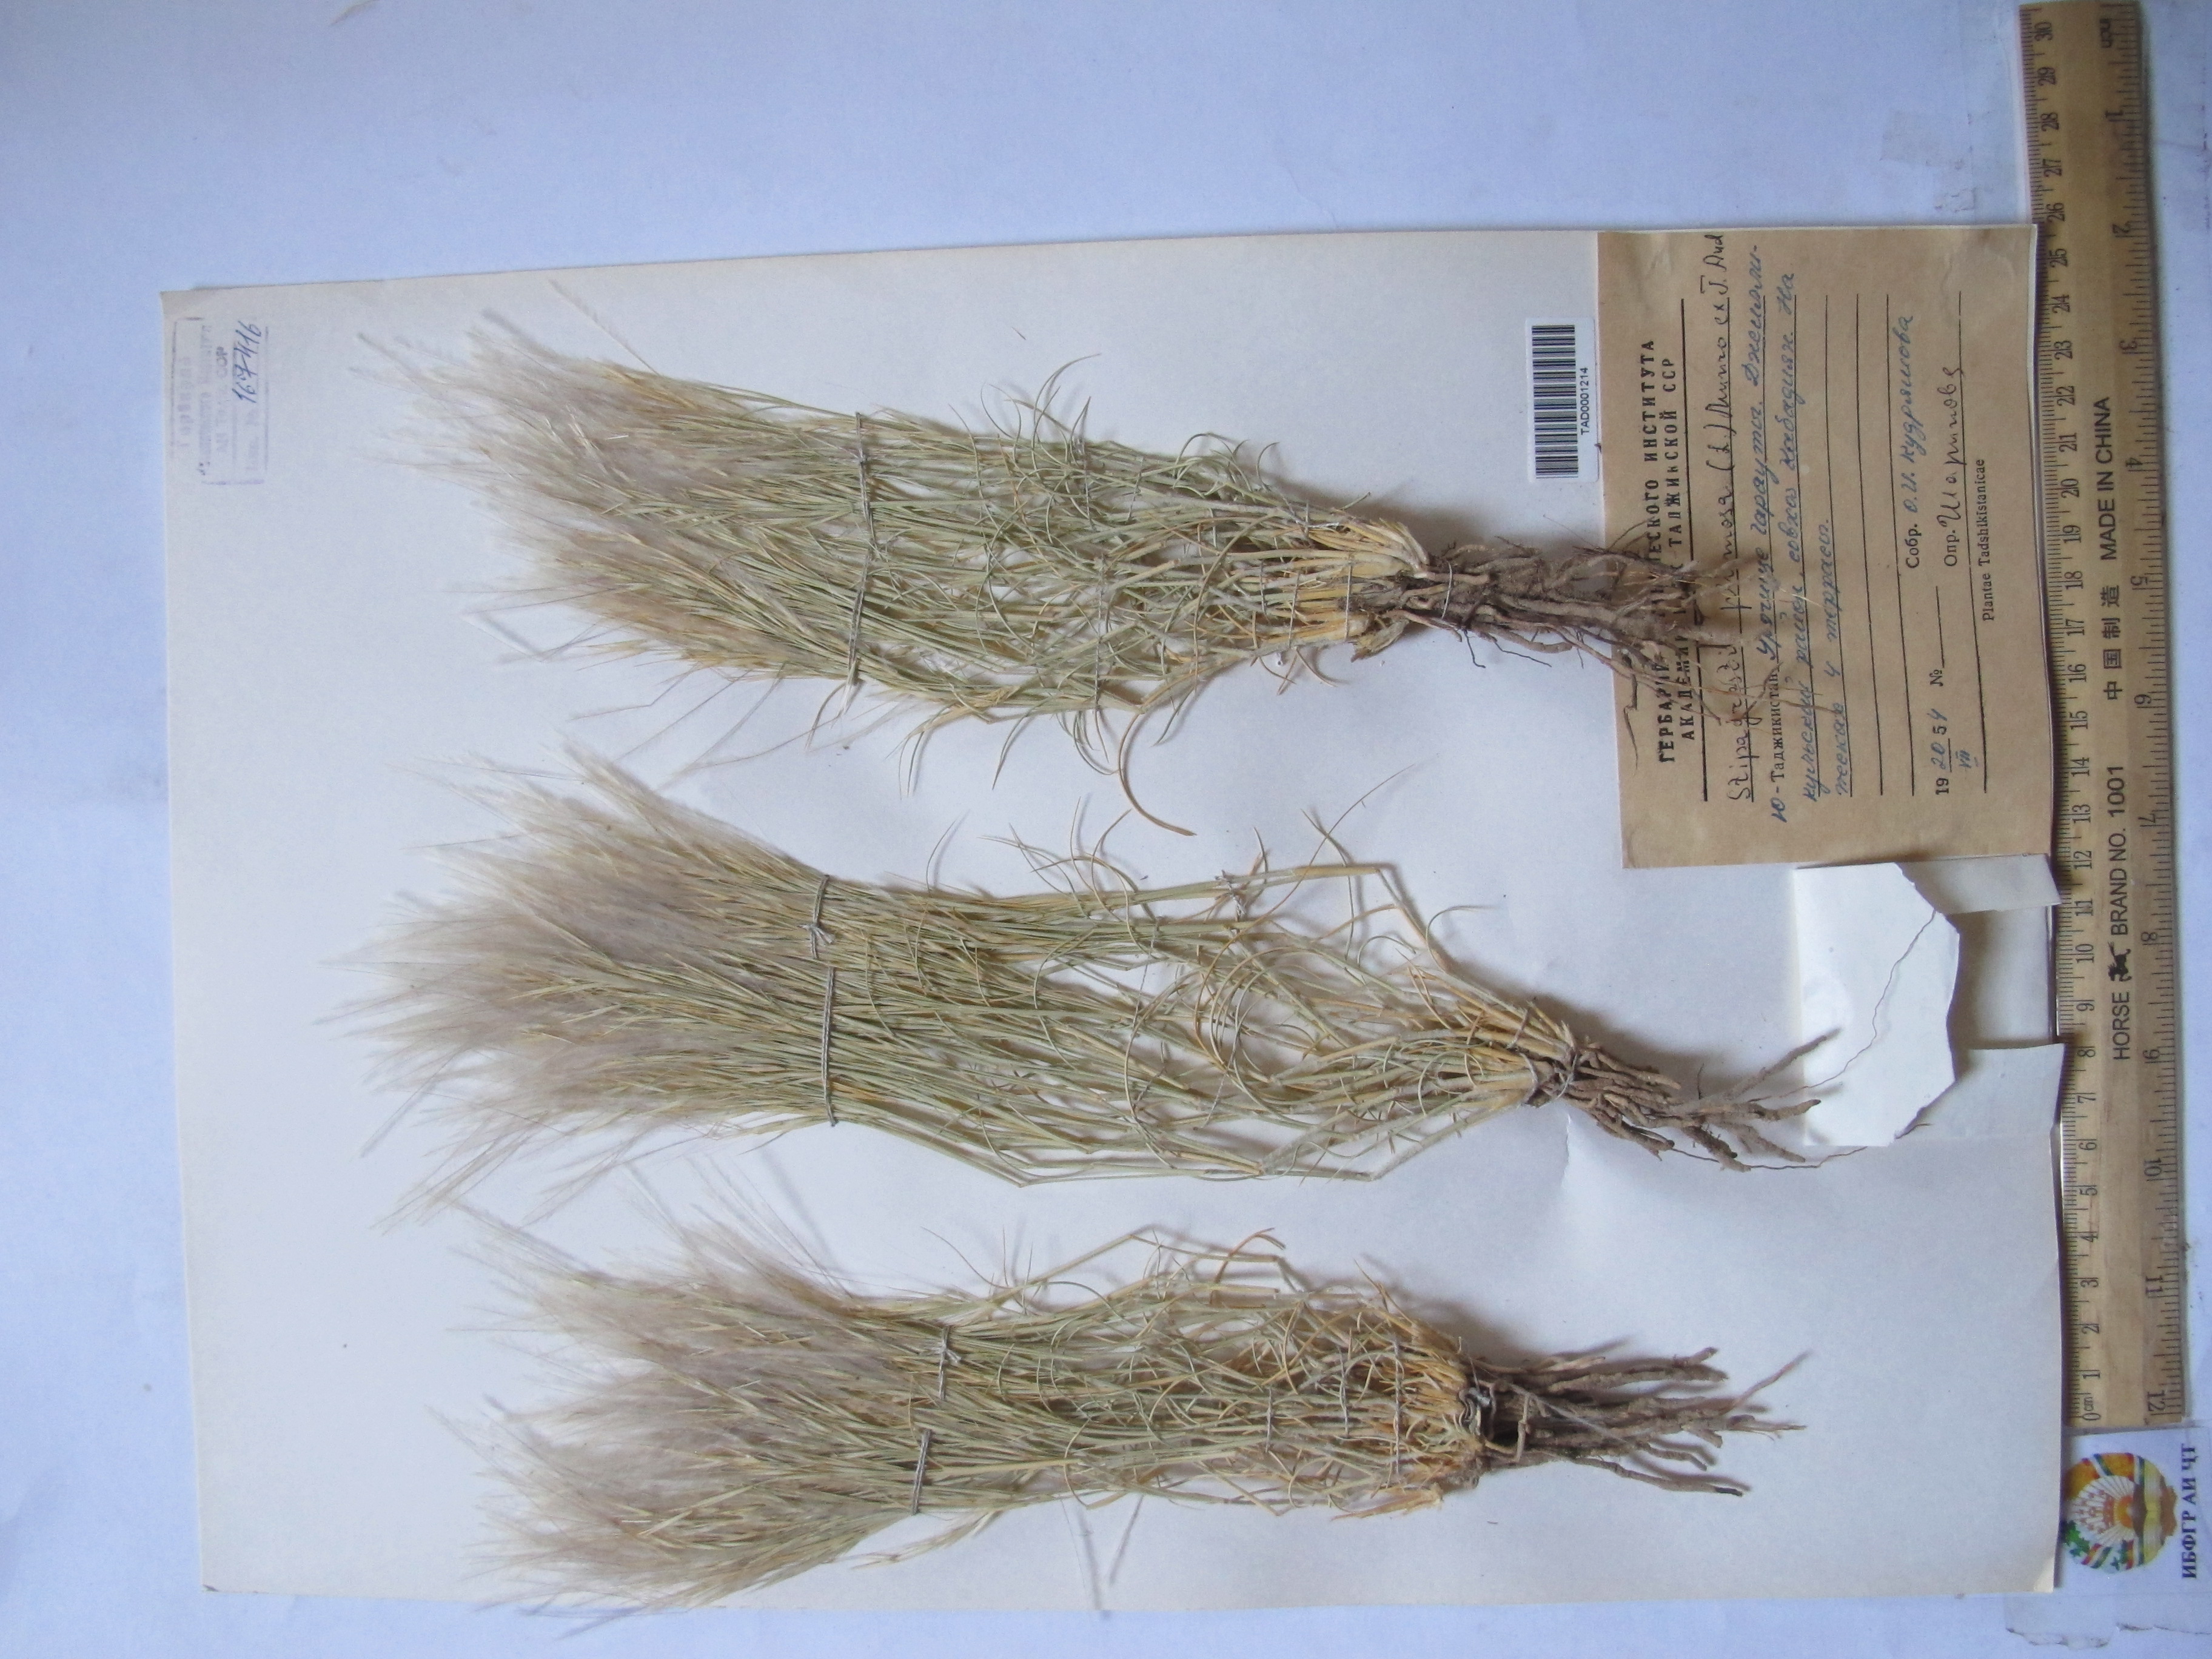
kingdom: Plantae
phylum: Tracheophyta
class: Liliopsida
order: Poales
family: Poaceae
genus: Stipagrostis
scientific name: Stipagrostis plumosa
